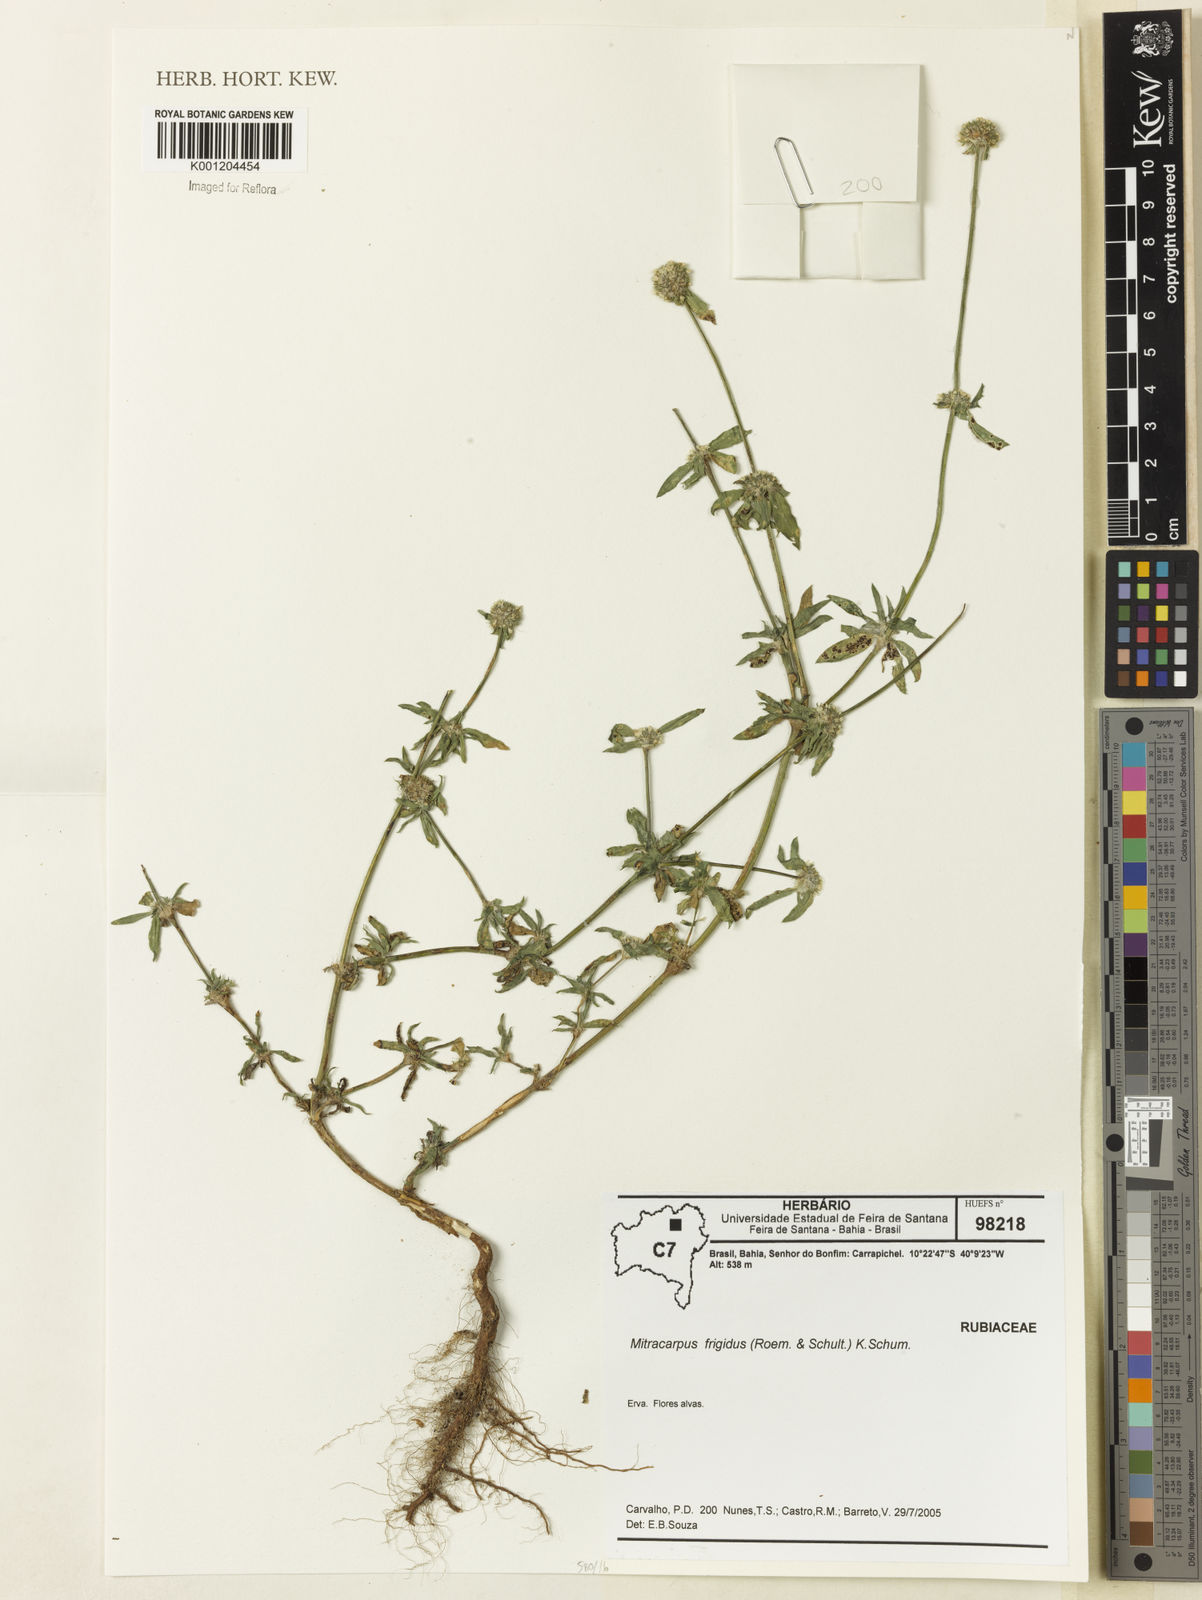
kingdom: Plantae
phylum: Tracheophyta
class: Magnoliopsida
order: Gentianales
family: Rubiaceae
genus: Mitracarpus
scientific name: Mitracarpus frigidus
